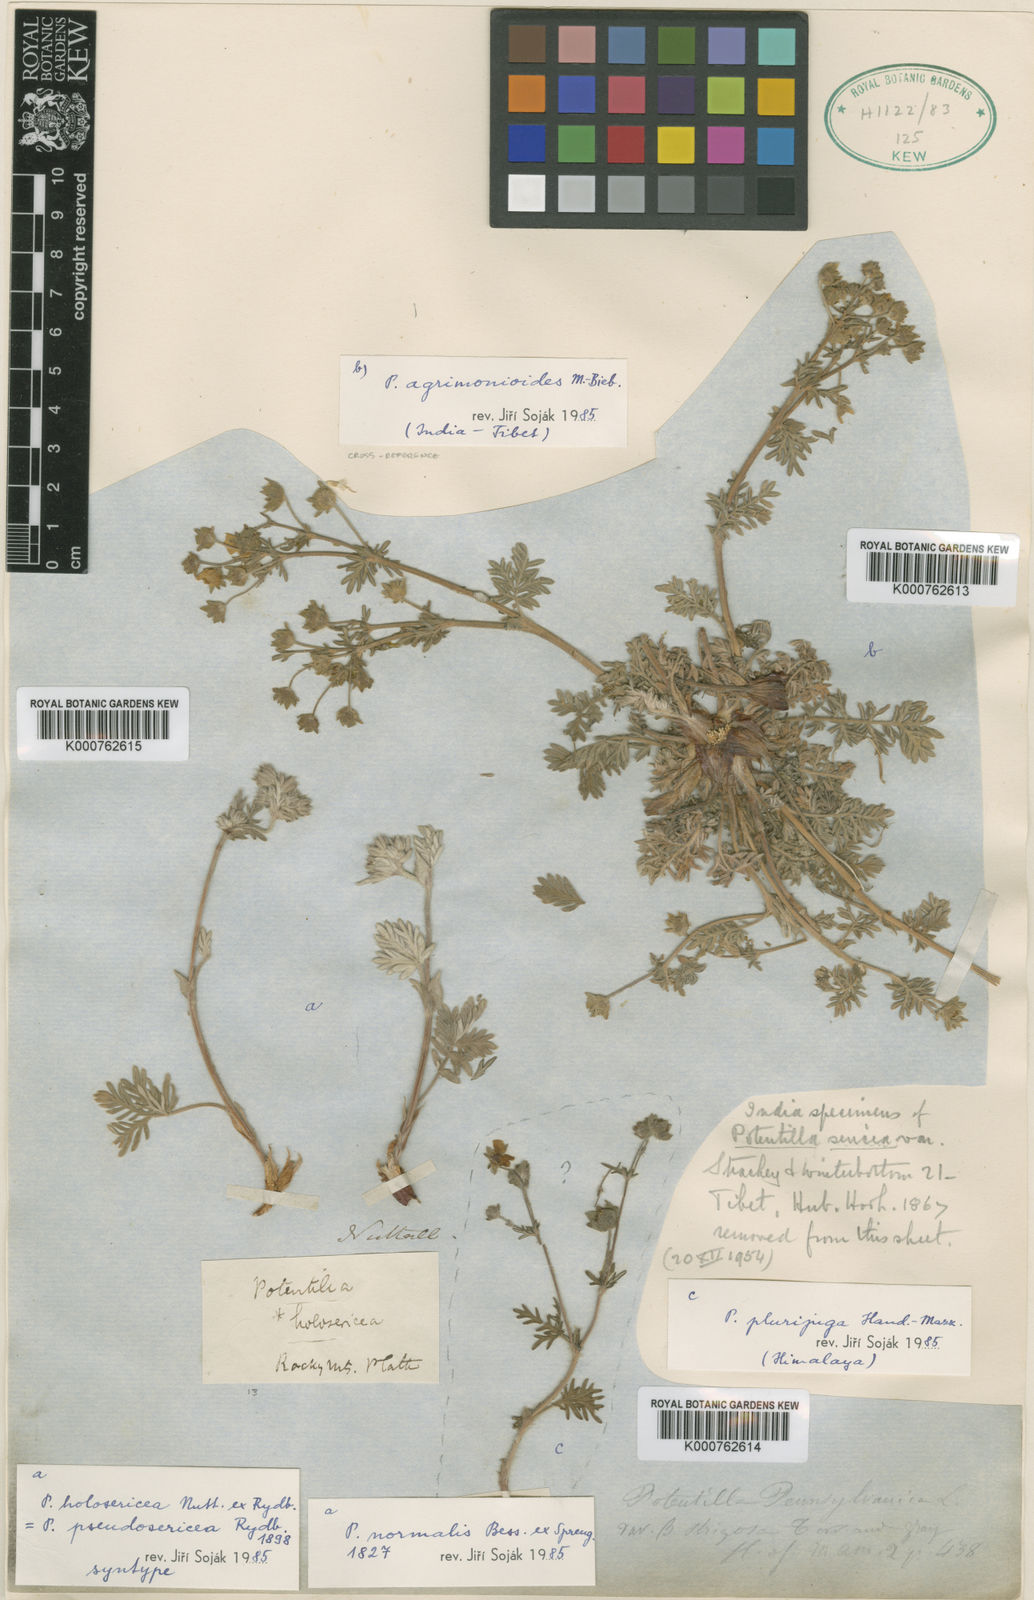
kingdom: Plantae
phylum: Tracheophyta
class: Magnoliopsida
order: Rosales
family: Rosaceae
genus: Potentilla
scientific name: Potentilla normalis
